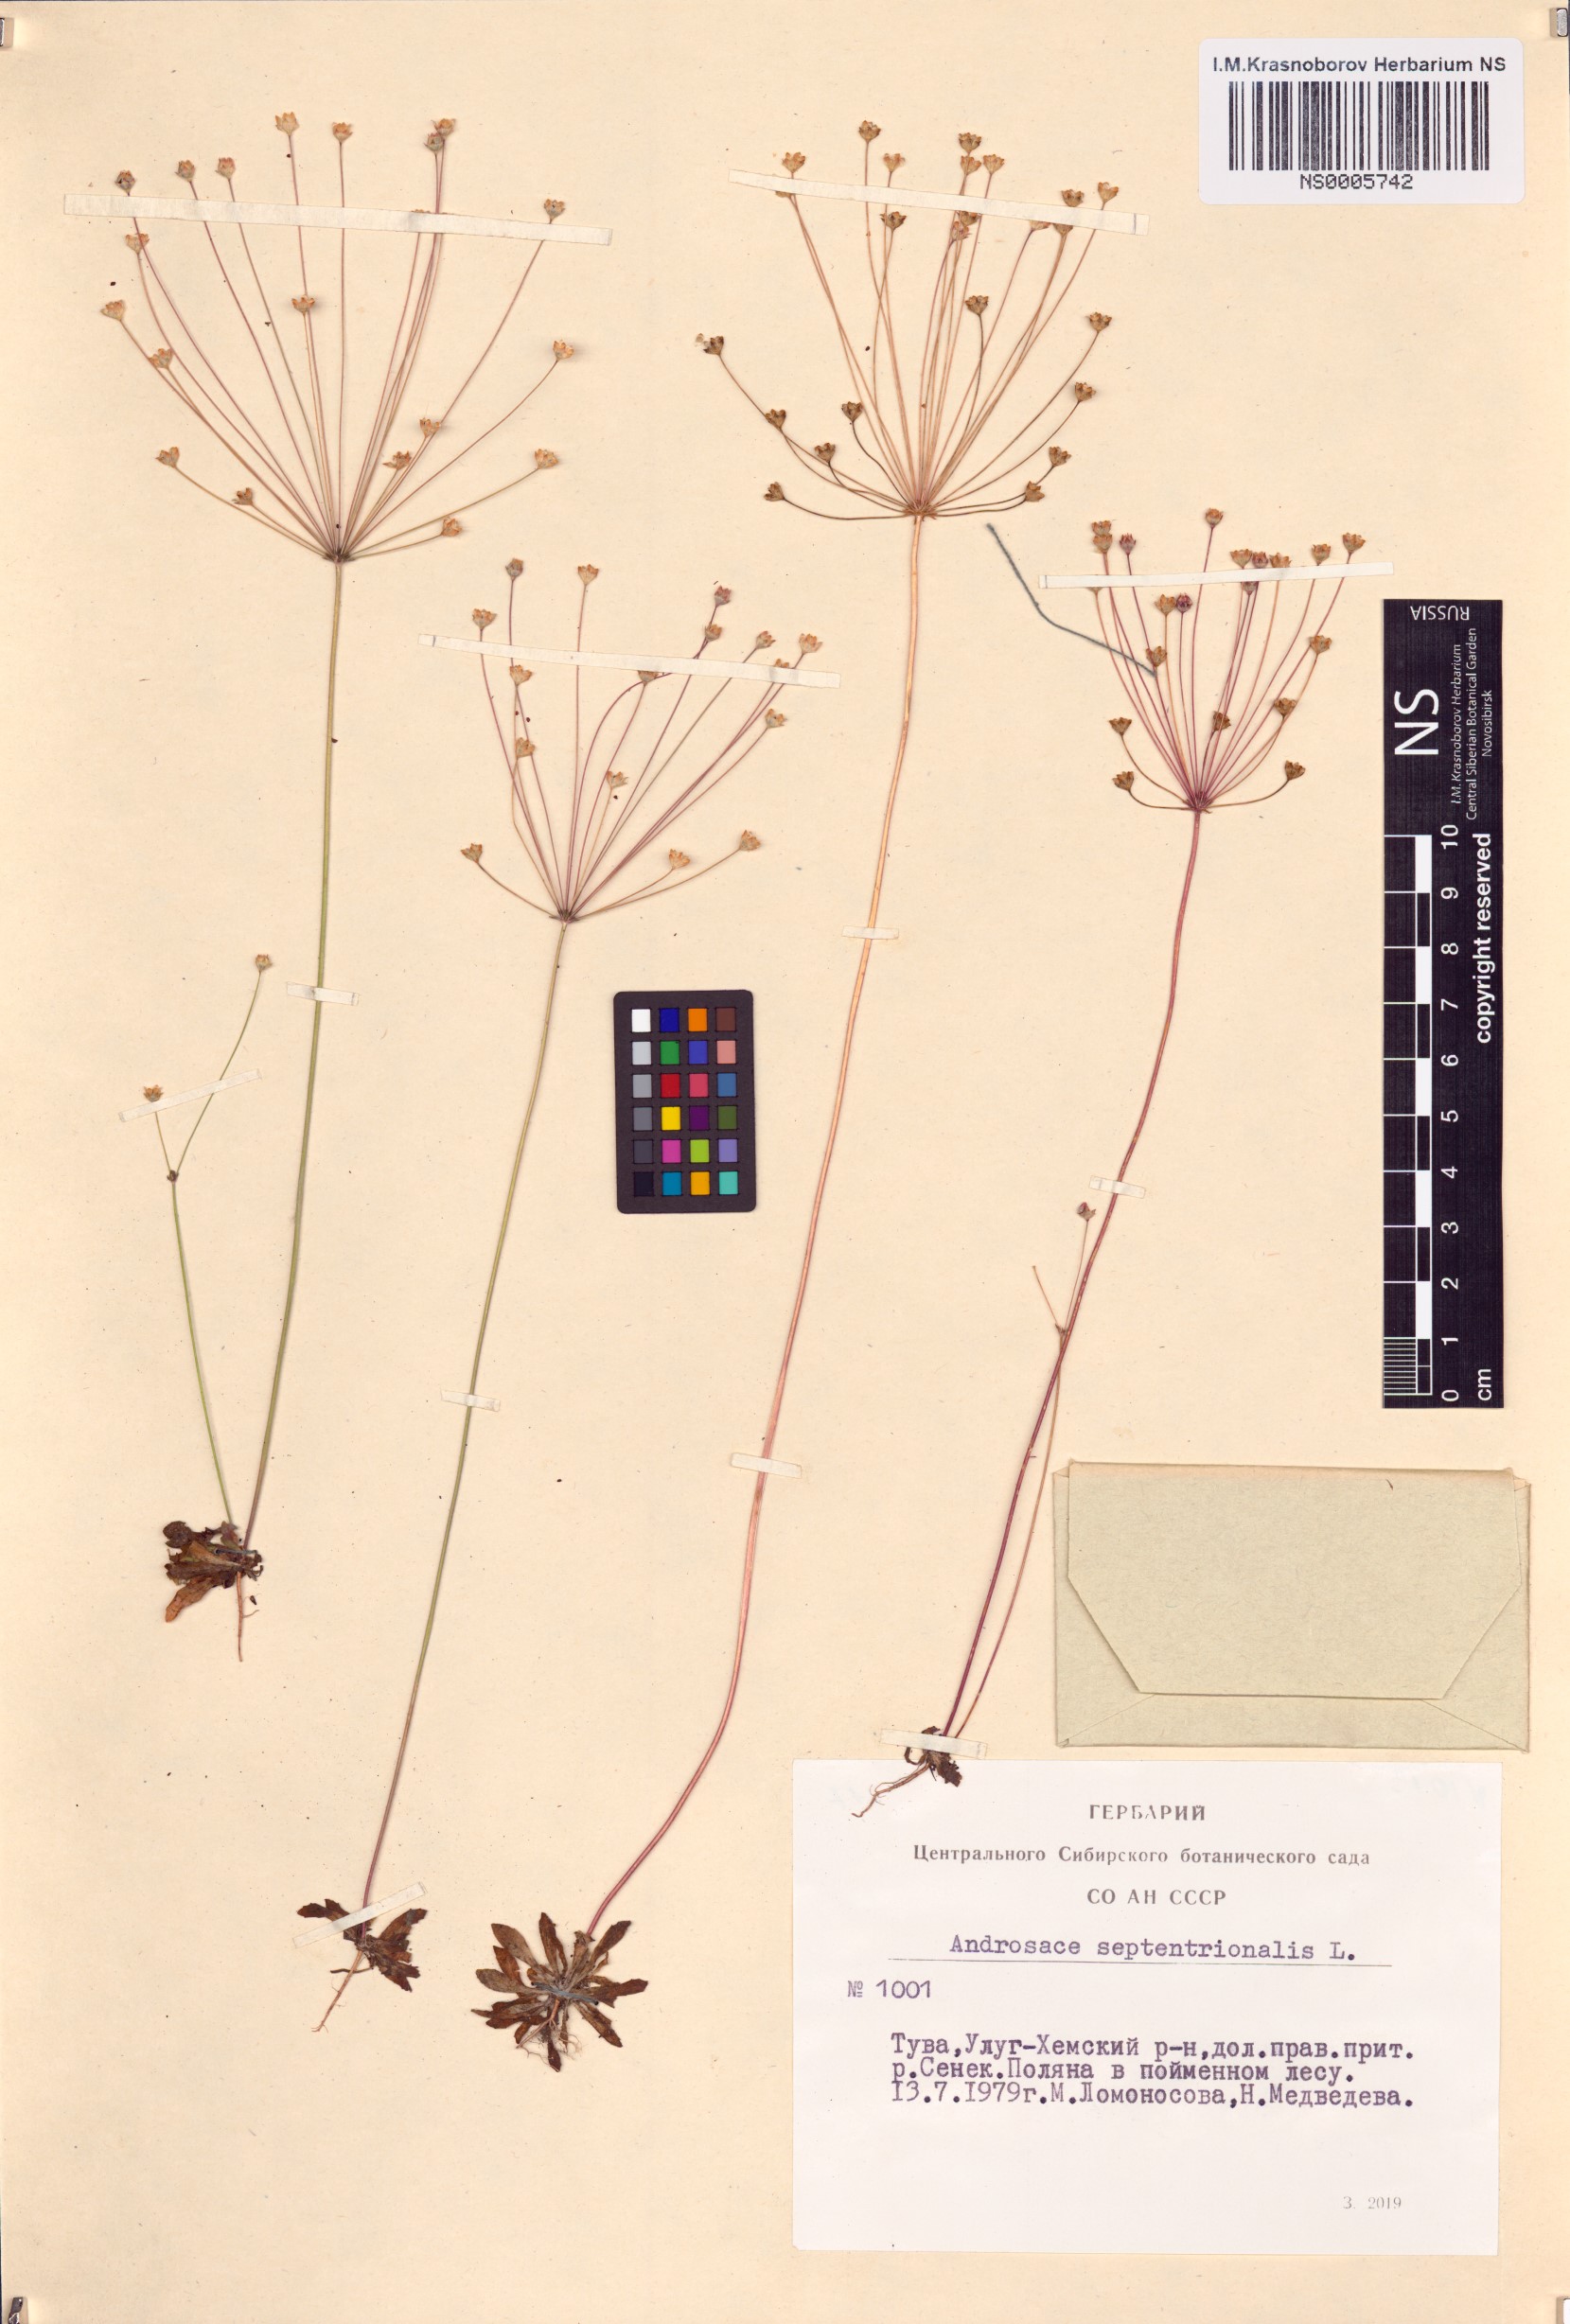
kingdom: Plantae
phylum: Tracheophyta
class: Magnoliopsida
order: Ericales
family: Primulaceae
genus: Androsace
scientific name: Androsace septentrionalis
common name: Hairy northern fairy-candelabra
